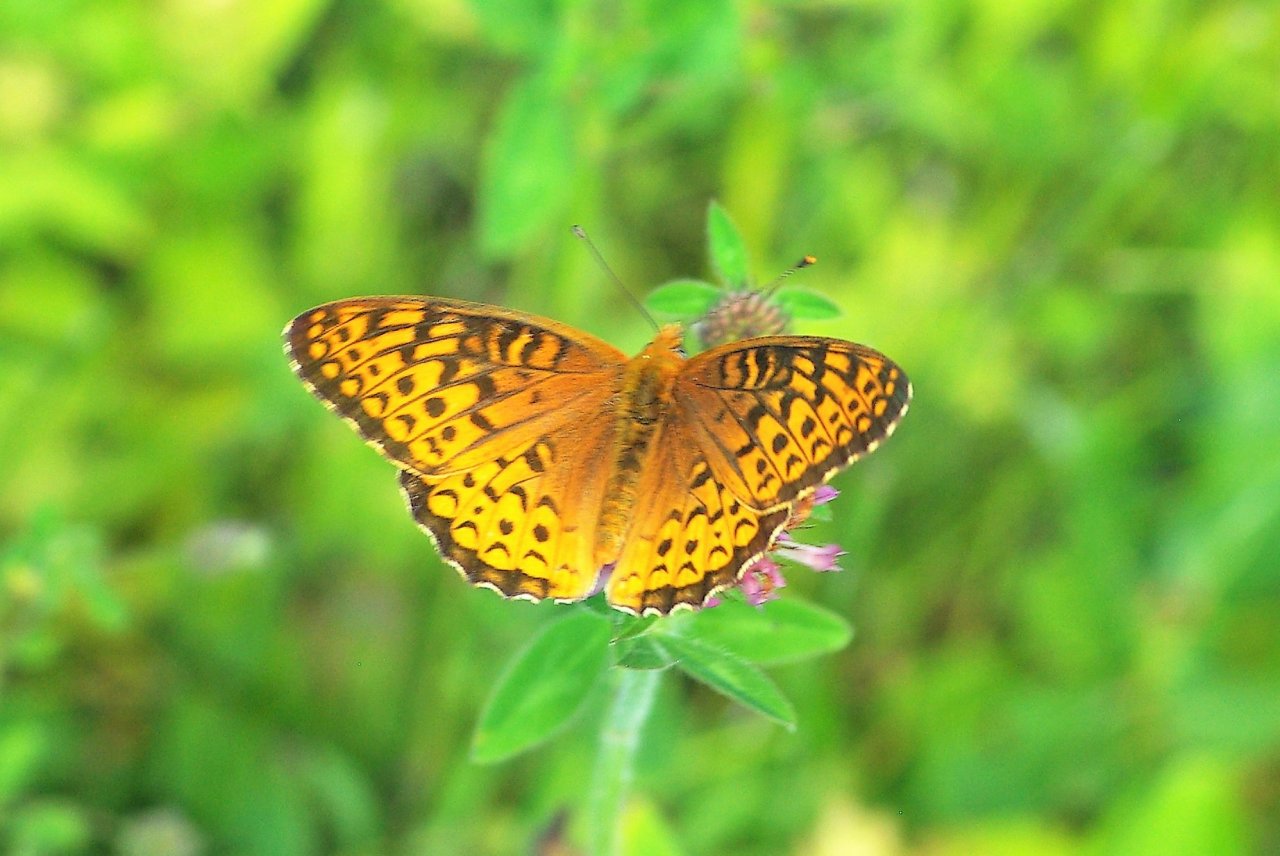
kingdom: Animalia
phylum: Arthropoda
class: Insecta
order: Lepidoptera
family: Nymphalidae
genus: Speyeria
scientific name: Speyeria atlantis
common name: Atlantis Fritillary
